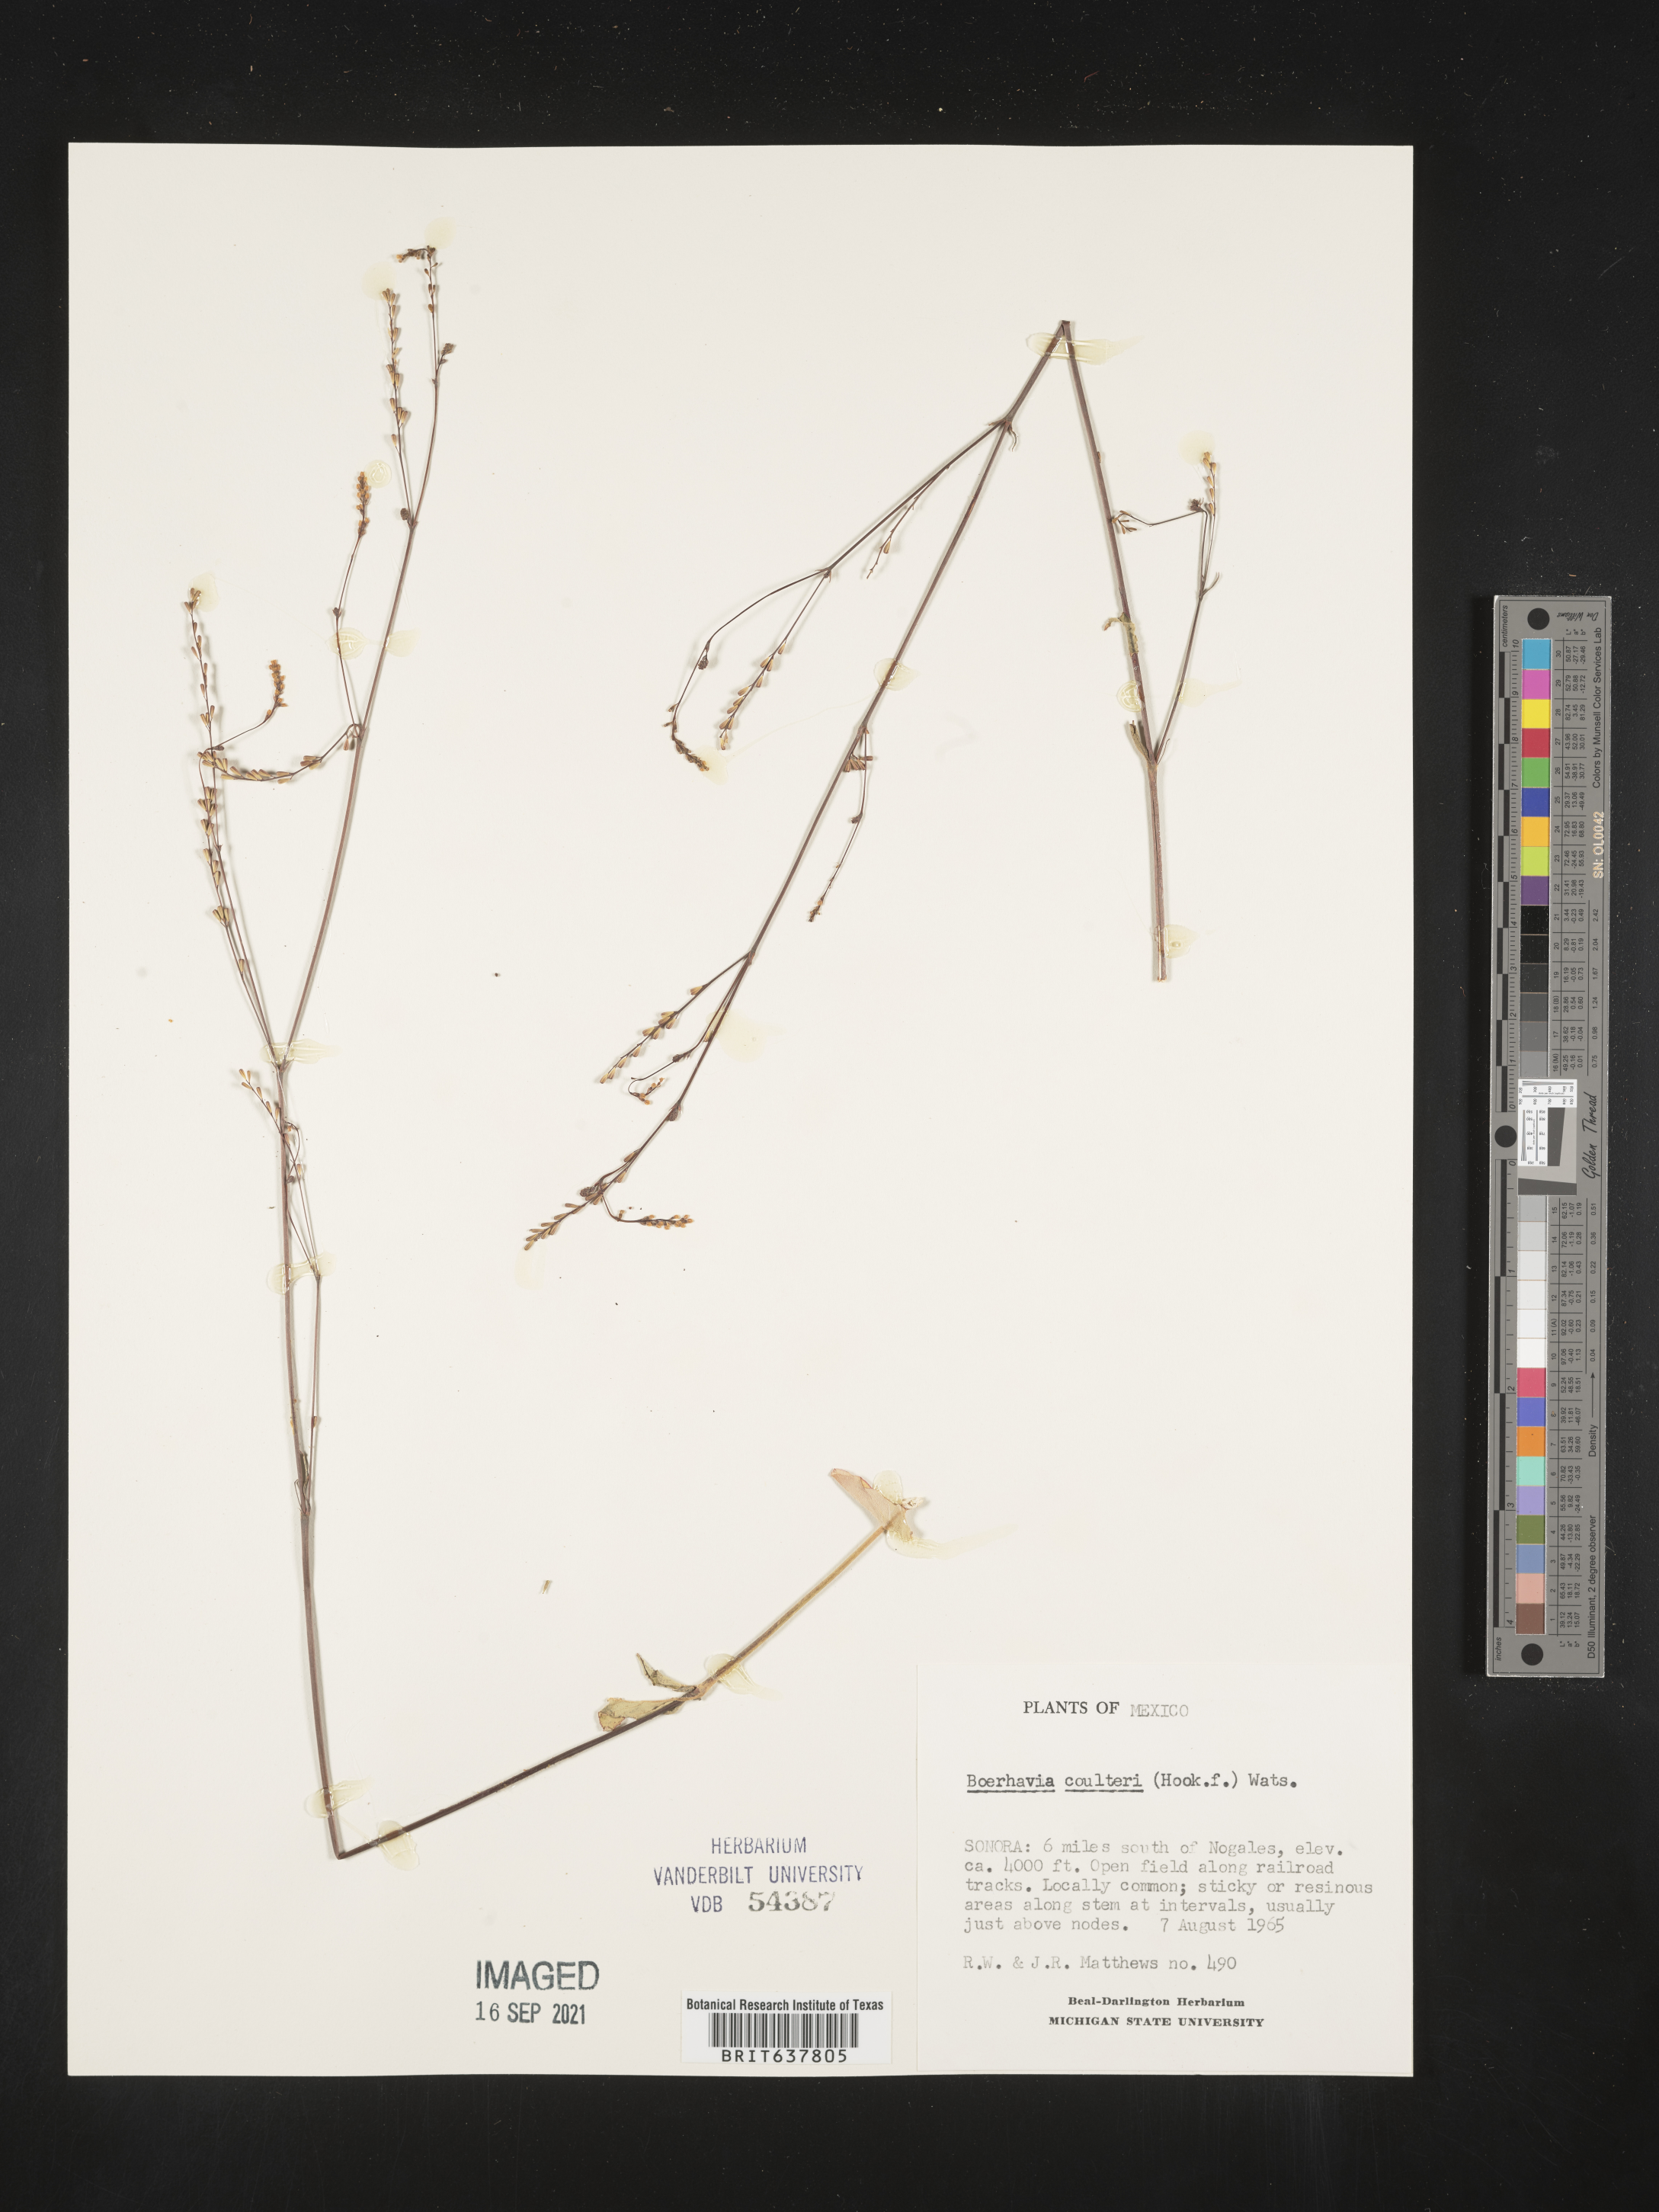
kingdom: Plantae
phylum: Tracheophyta
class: Magnoliopsida
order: Caryophyllales
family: Nyctaginaceae
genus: Boerhavia
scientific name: Boerhavia
